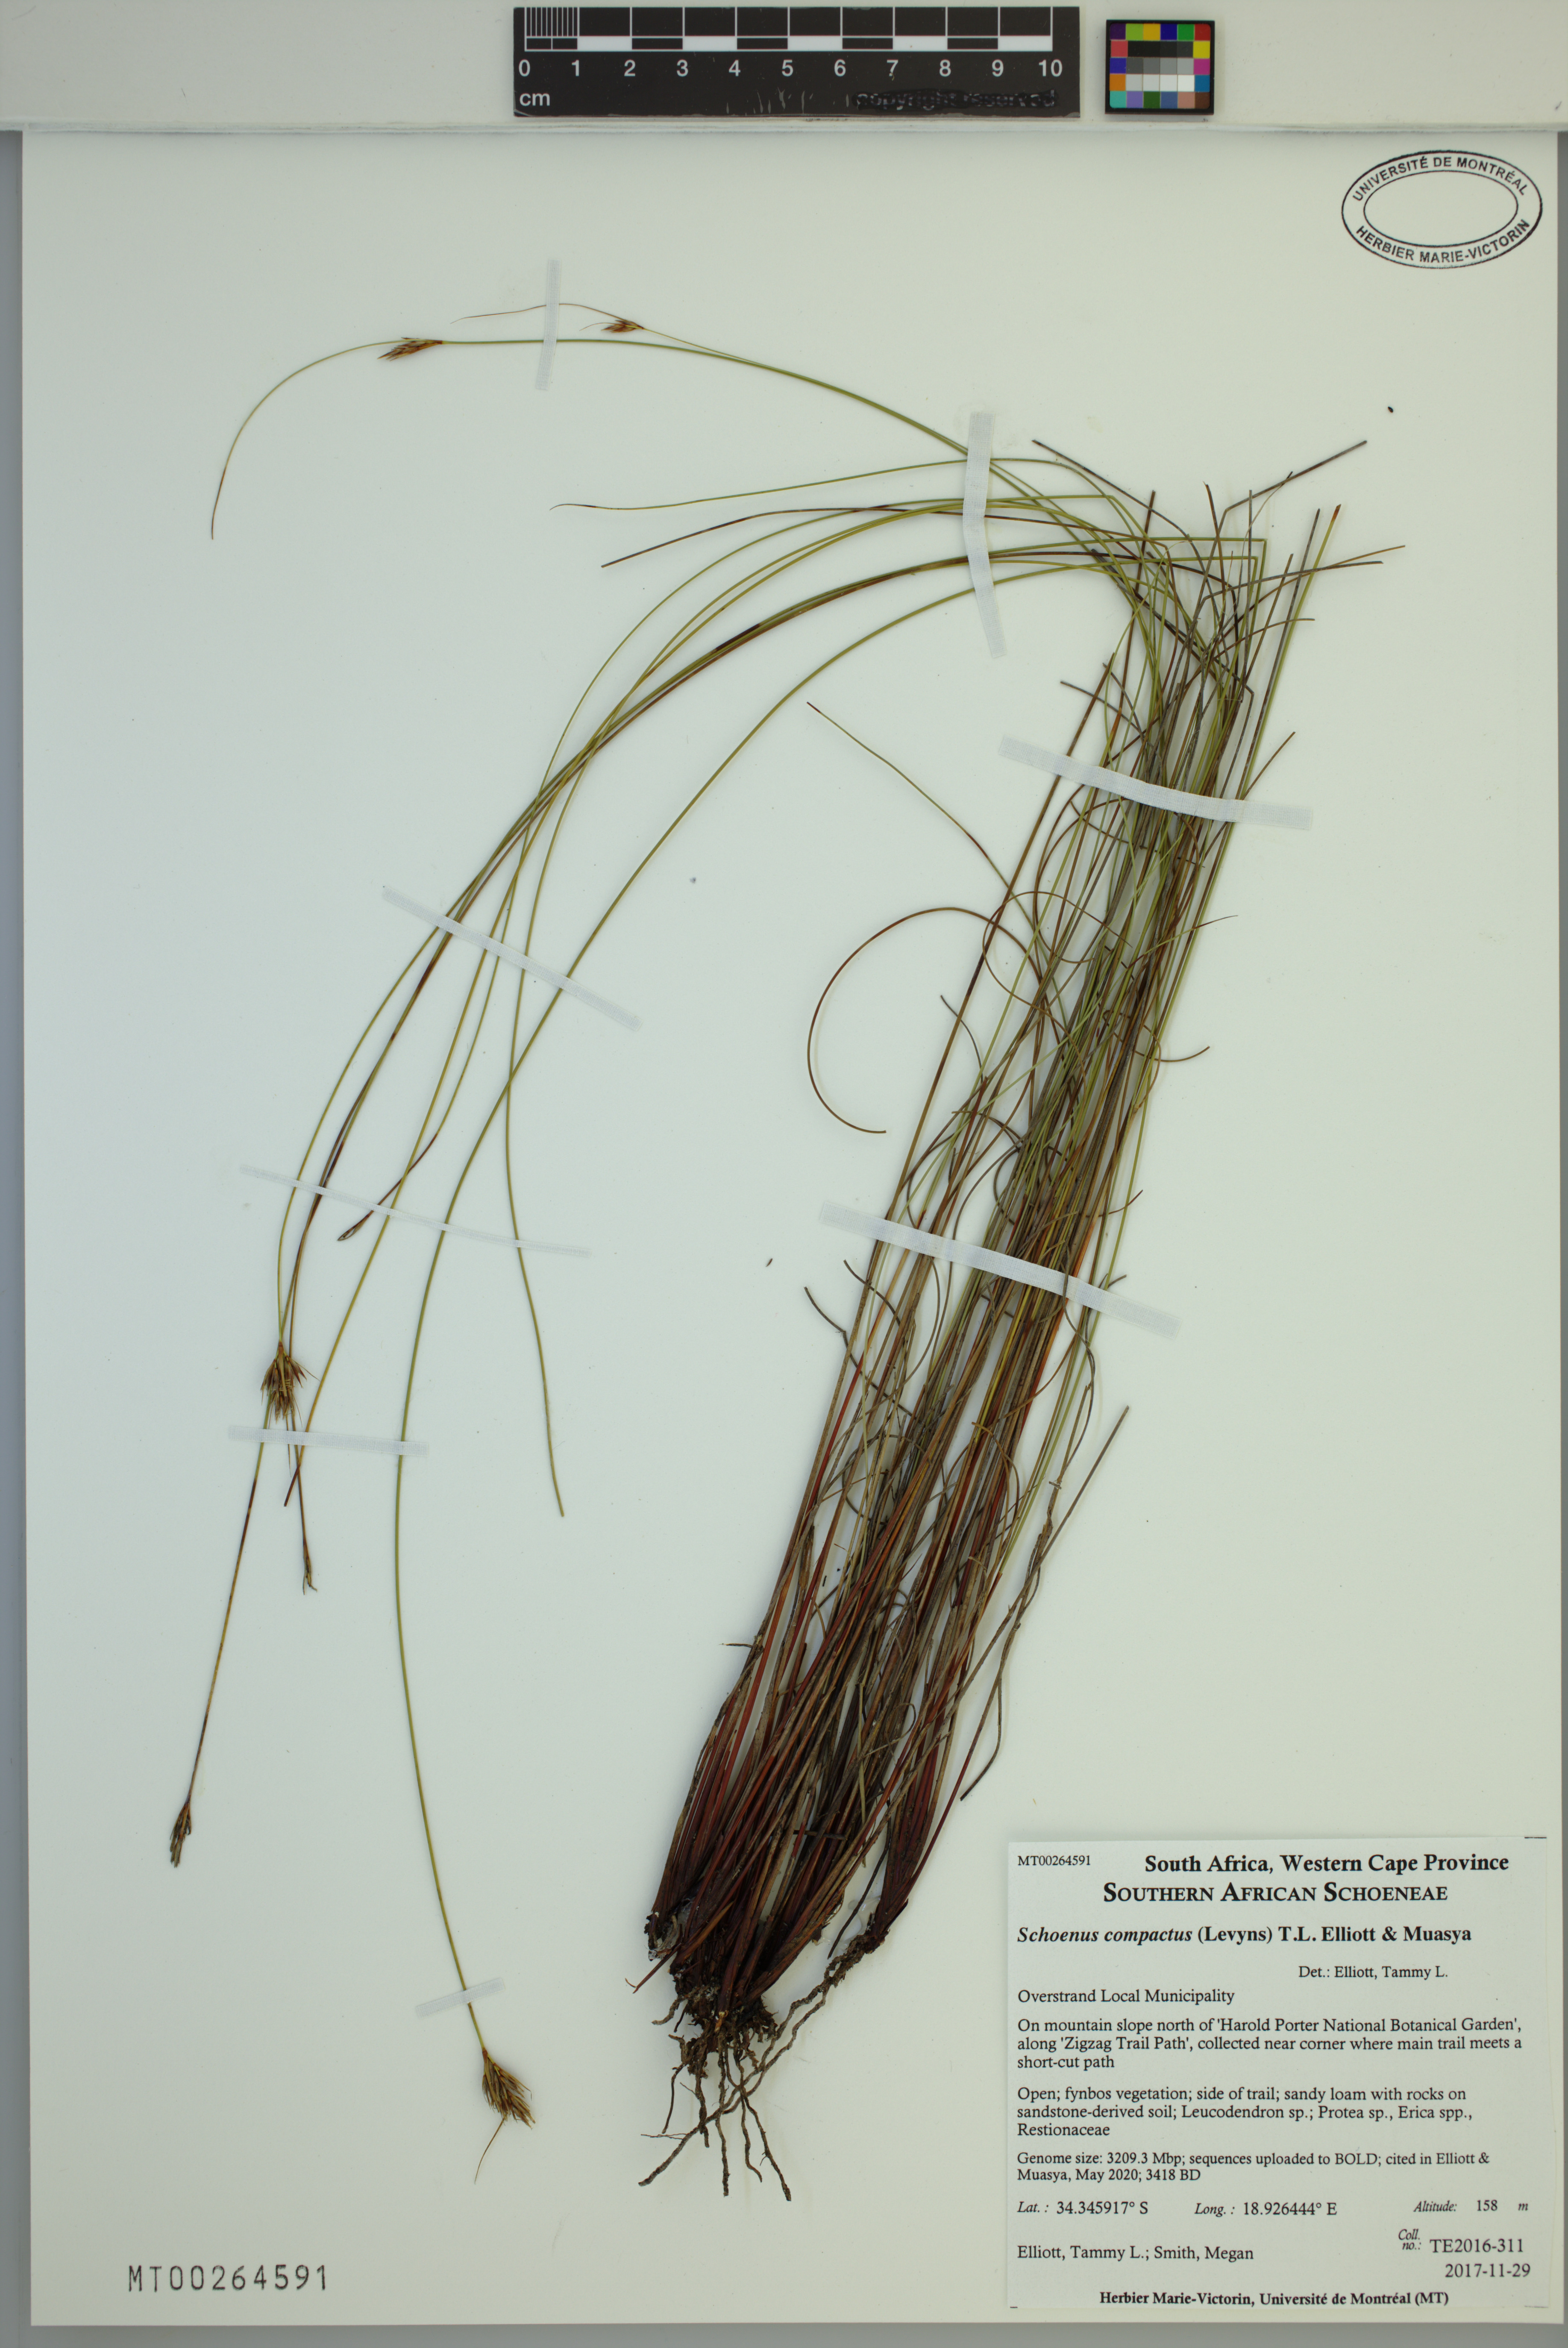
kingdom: Plantae
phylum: Tracheophyta
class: Liliopsida
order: Poales
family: Cyperaceae
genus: Schoenus
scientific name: Schoenus compactus
